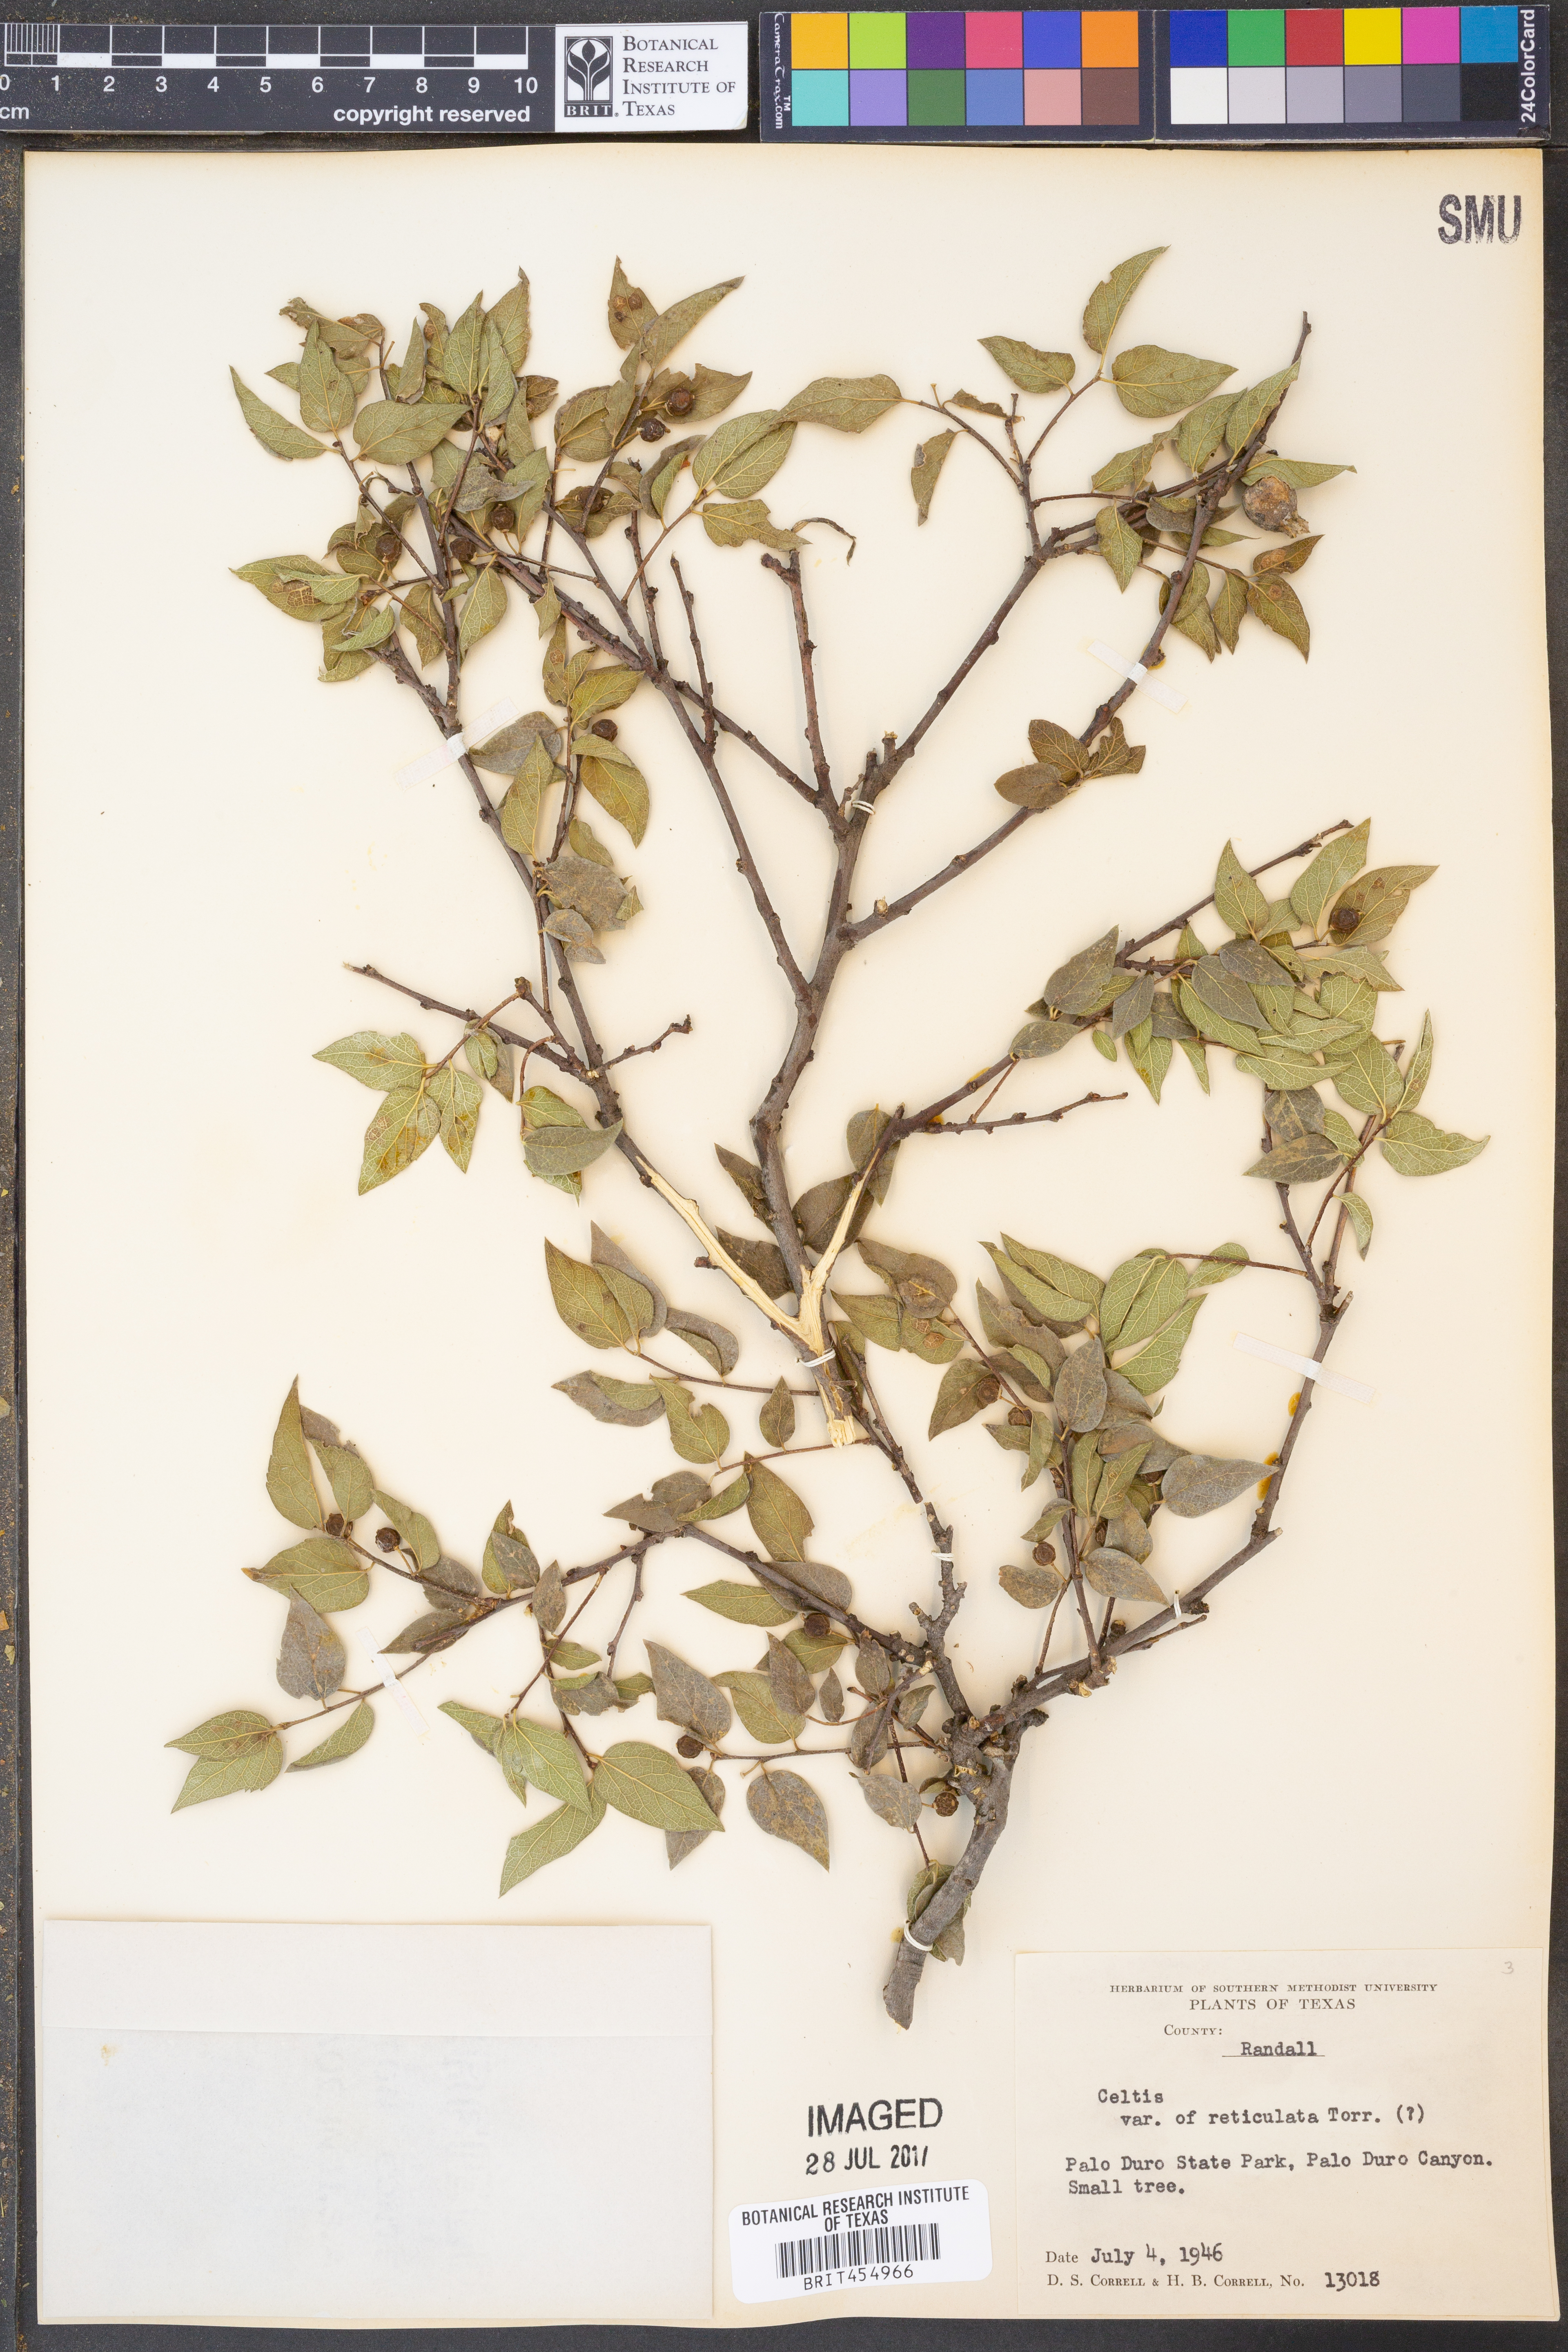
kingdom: Plantae
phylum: Tracheophyta
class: Magnoliopsida
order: Rosales
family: Cannabaceae
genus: Celtis
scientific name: Celtis reticulata
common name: Netleaf hackberry
